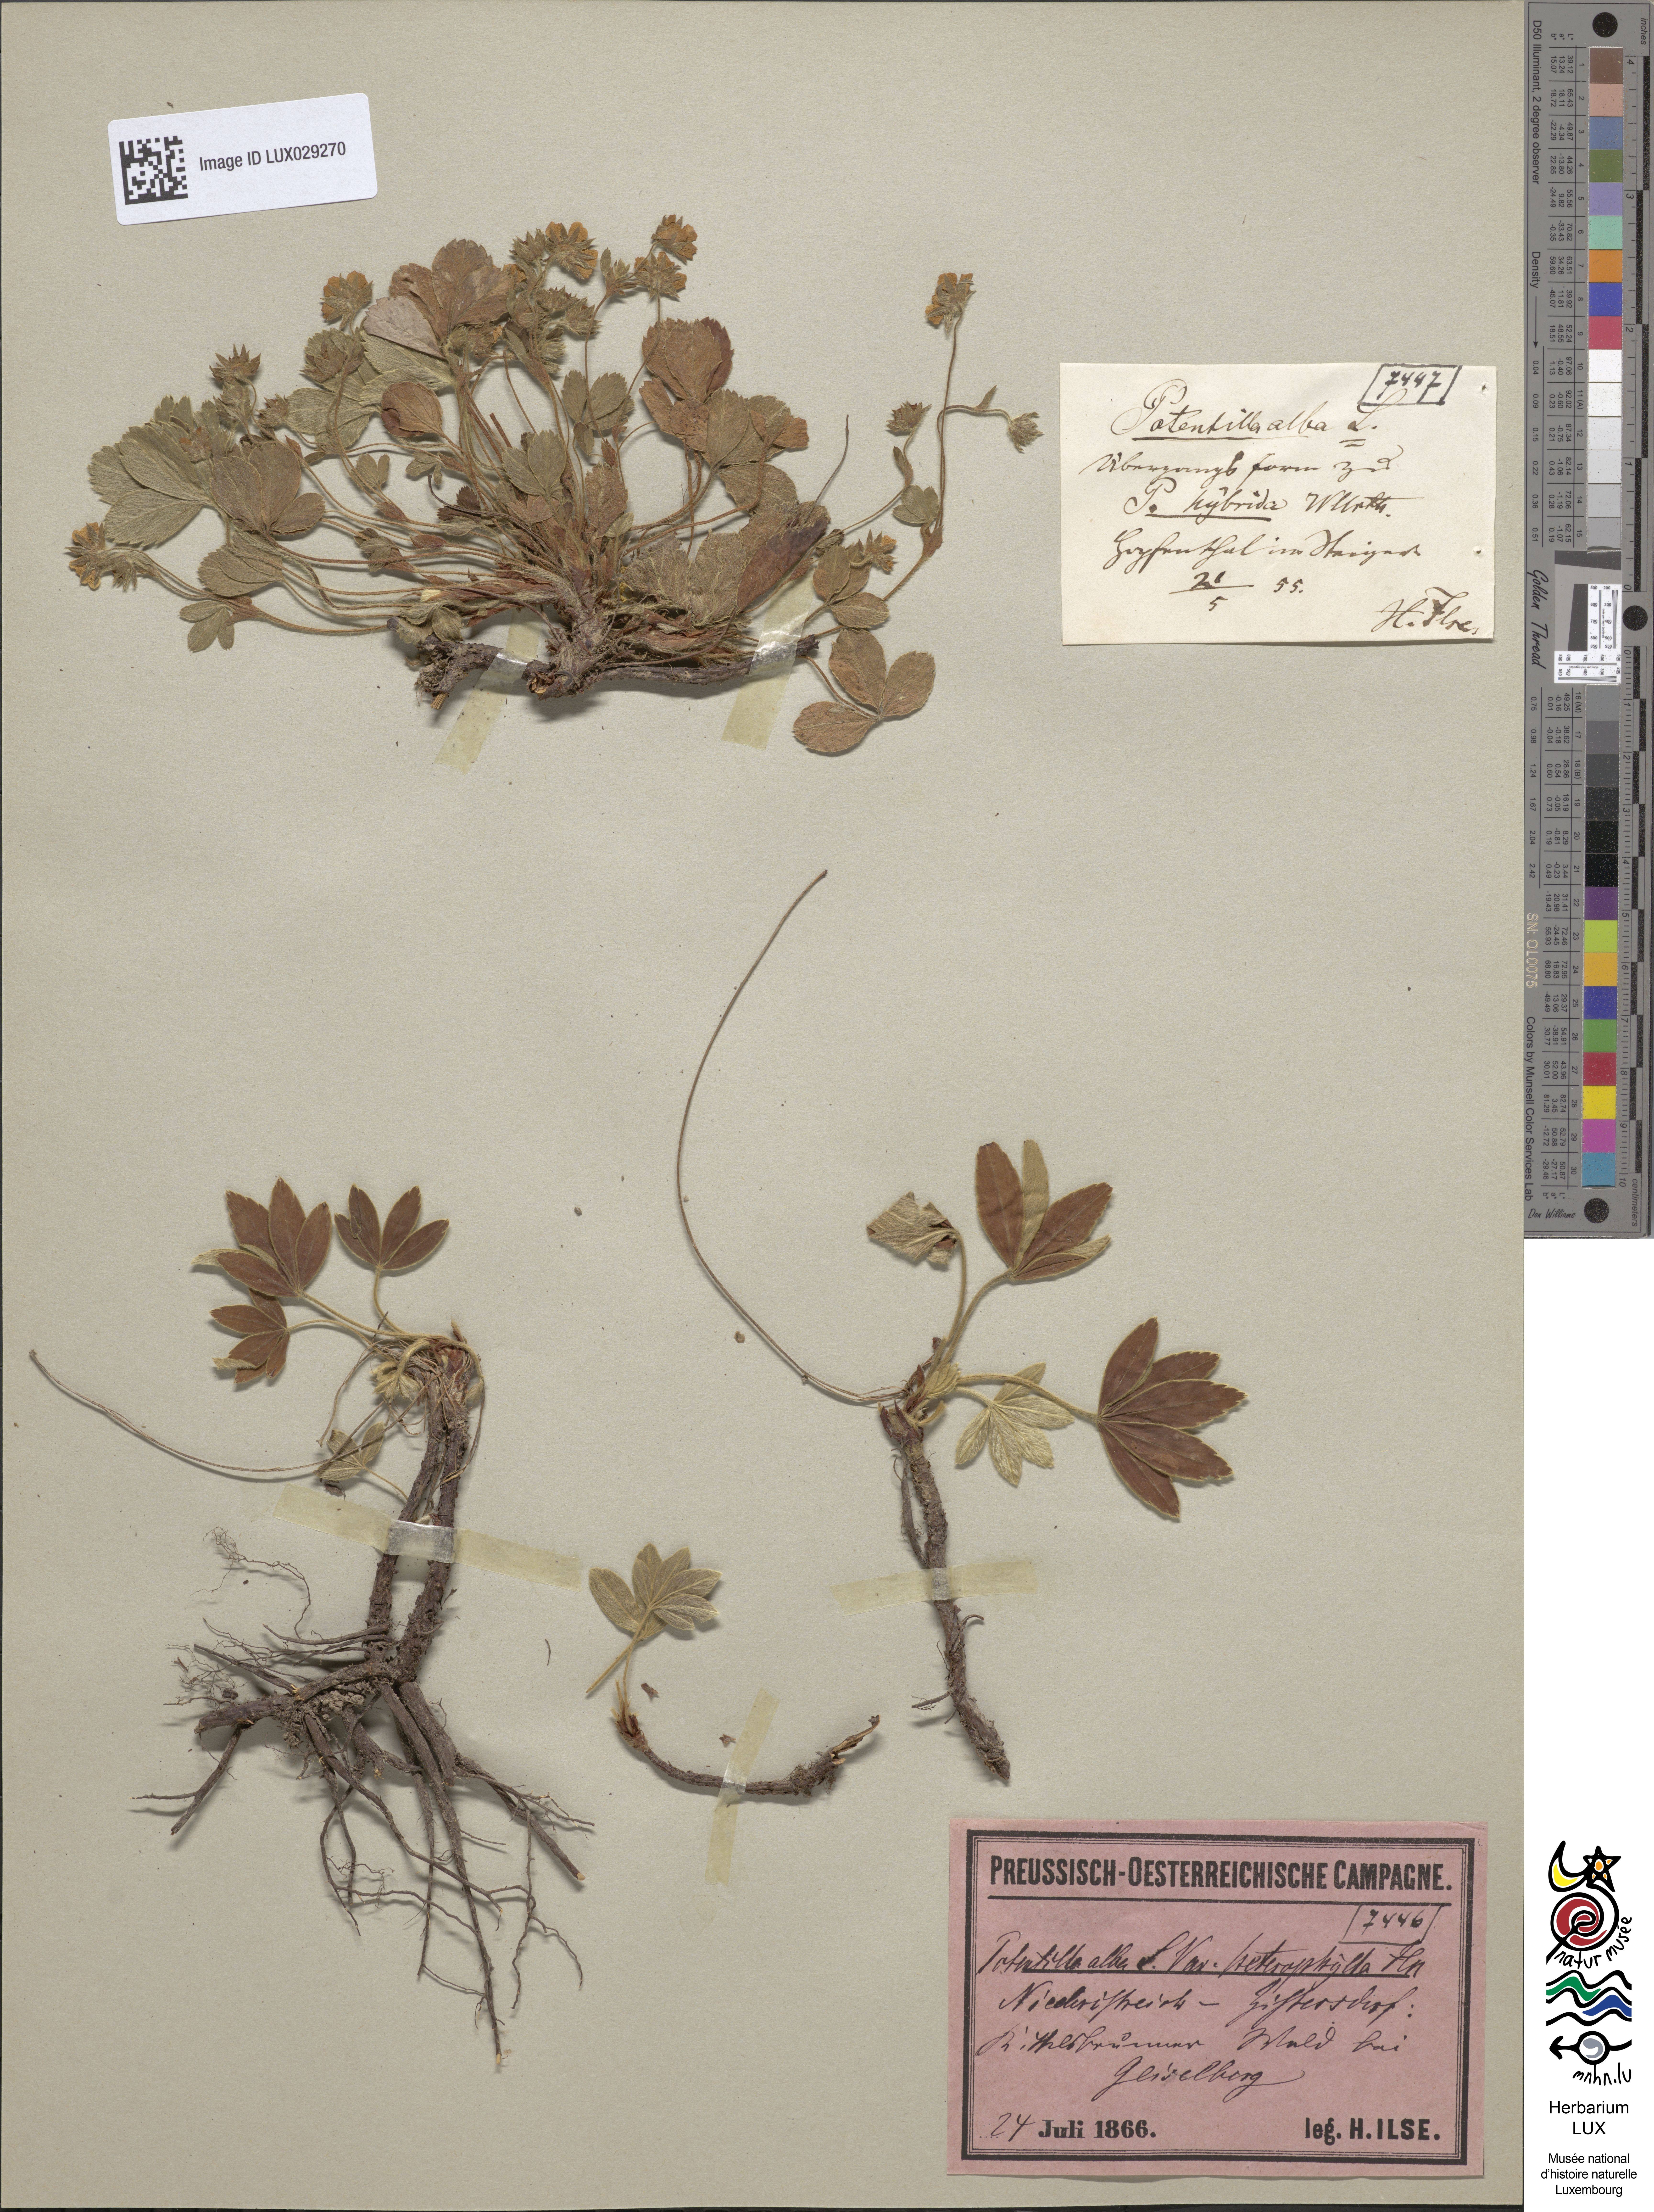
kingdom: Plantae
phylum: Tracheophyta
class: Magnoliopsida
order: Rosales
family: Rosaceae
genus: Potentilla
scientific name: Potentilla alba
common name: White cinquefoil
